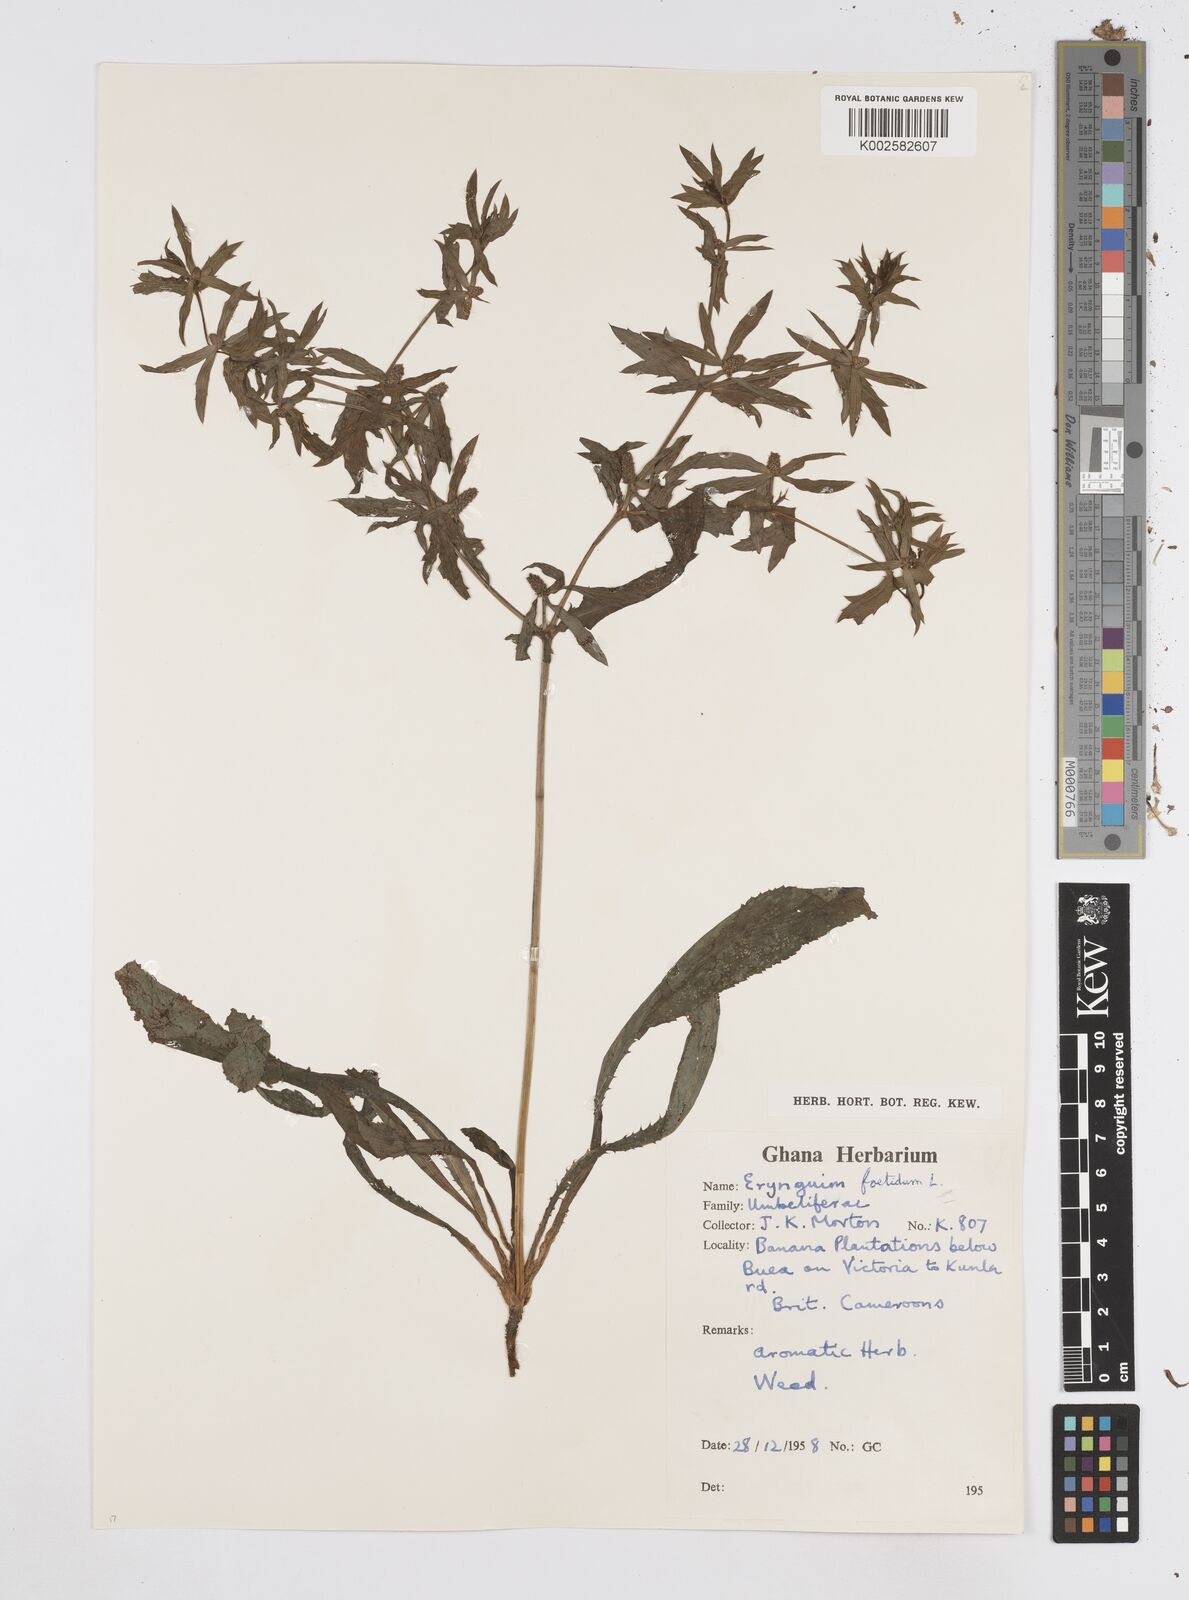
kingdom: Plantae
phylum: Tracheophyta
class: Magnoliopsida
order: Apiales
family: Apiaceae
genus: Eryngium
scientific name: Eryngium foetidum
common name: Fitweed
